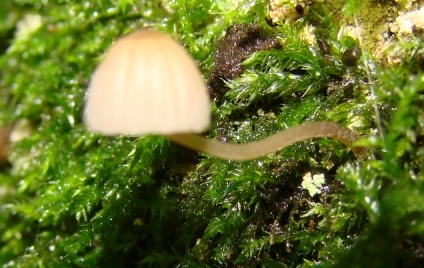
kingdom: Fungi
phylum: Basidiomycota
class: Agaricomycetes
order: Agaricales
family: Mycenaceae
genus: Mycena
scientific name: Mycena meliigena
